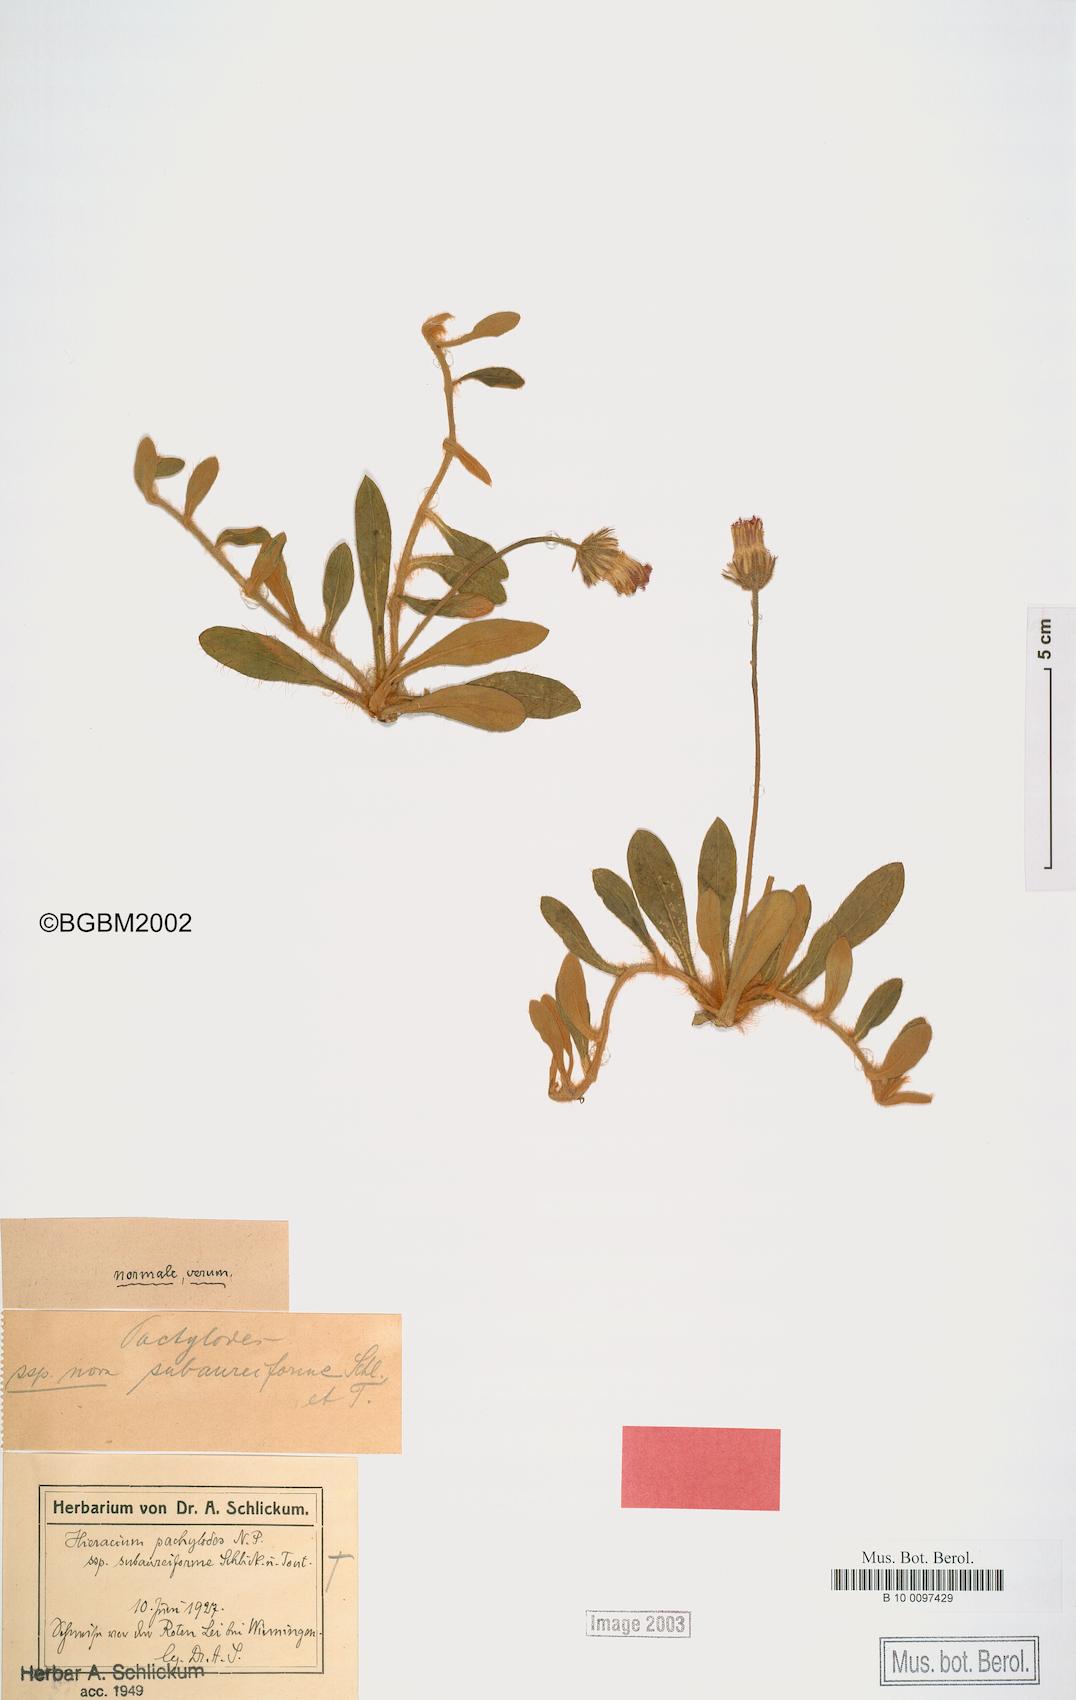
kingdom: Plantae
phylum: Tracheophyta
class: Magnoliopsida
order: Asterales
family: Asteraceae
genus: Pilosella
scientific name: Pilosella longisquama
